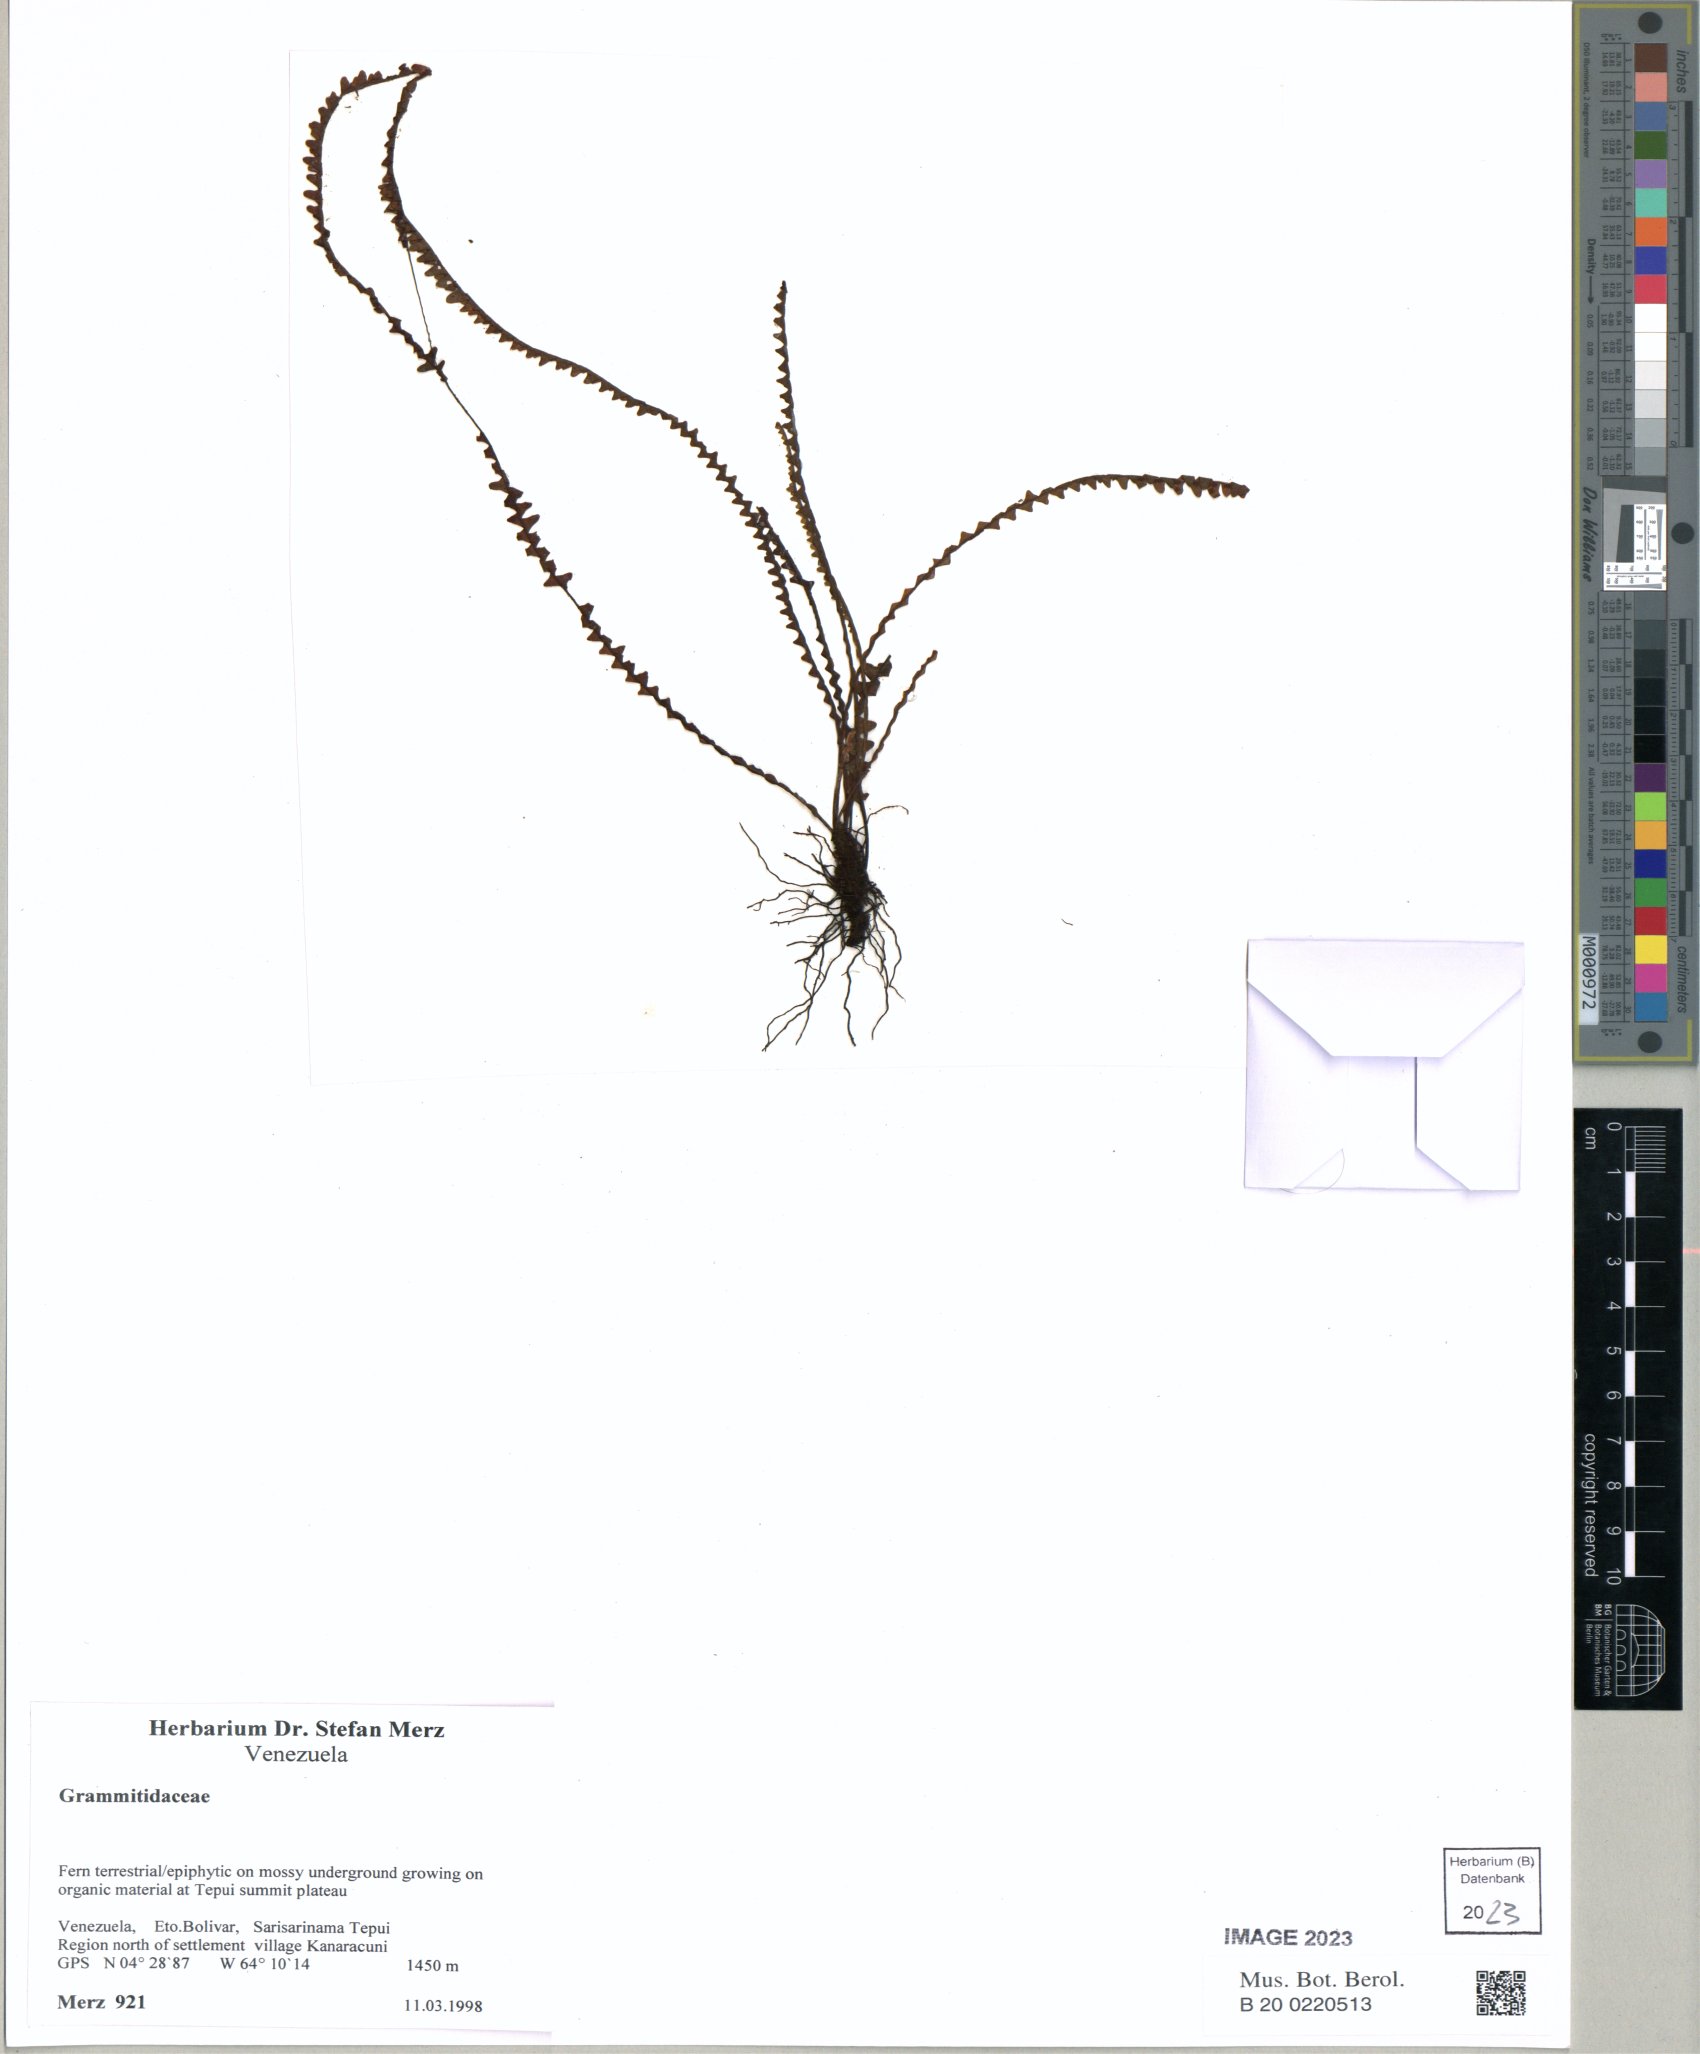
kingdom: Plantae
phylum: Tracheophyta
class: Polypodiopsida
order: Polypodiales
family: Polypodiaceae
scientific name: Polypodiaceae
